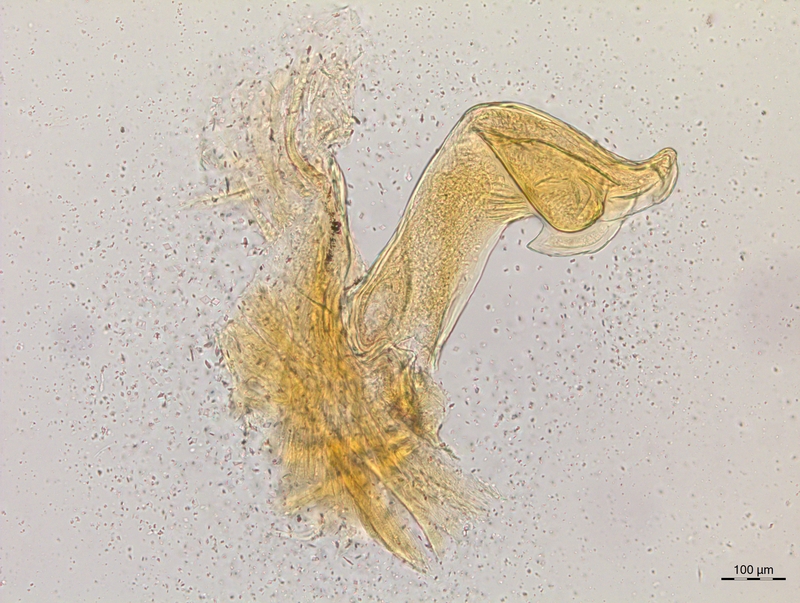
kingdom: Animalia
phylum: Arthropoda
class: Diplopoda
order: Chordeumatida
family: Craspedosomatidae
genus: Craspedosoma
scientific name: Craspedosoma rawlinsii
